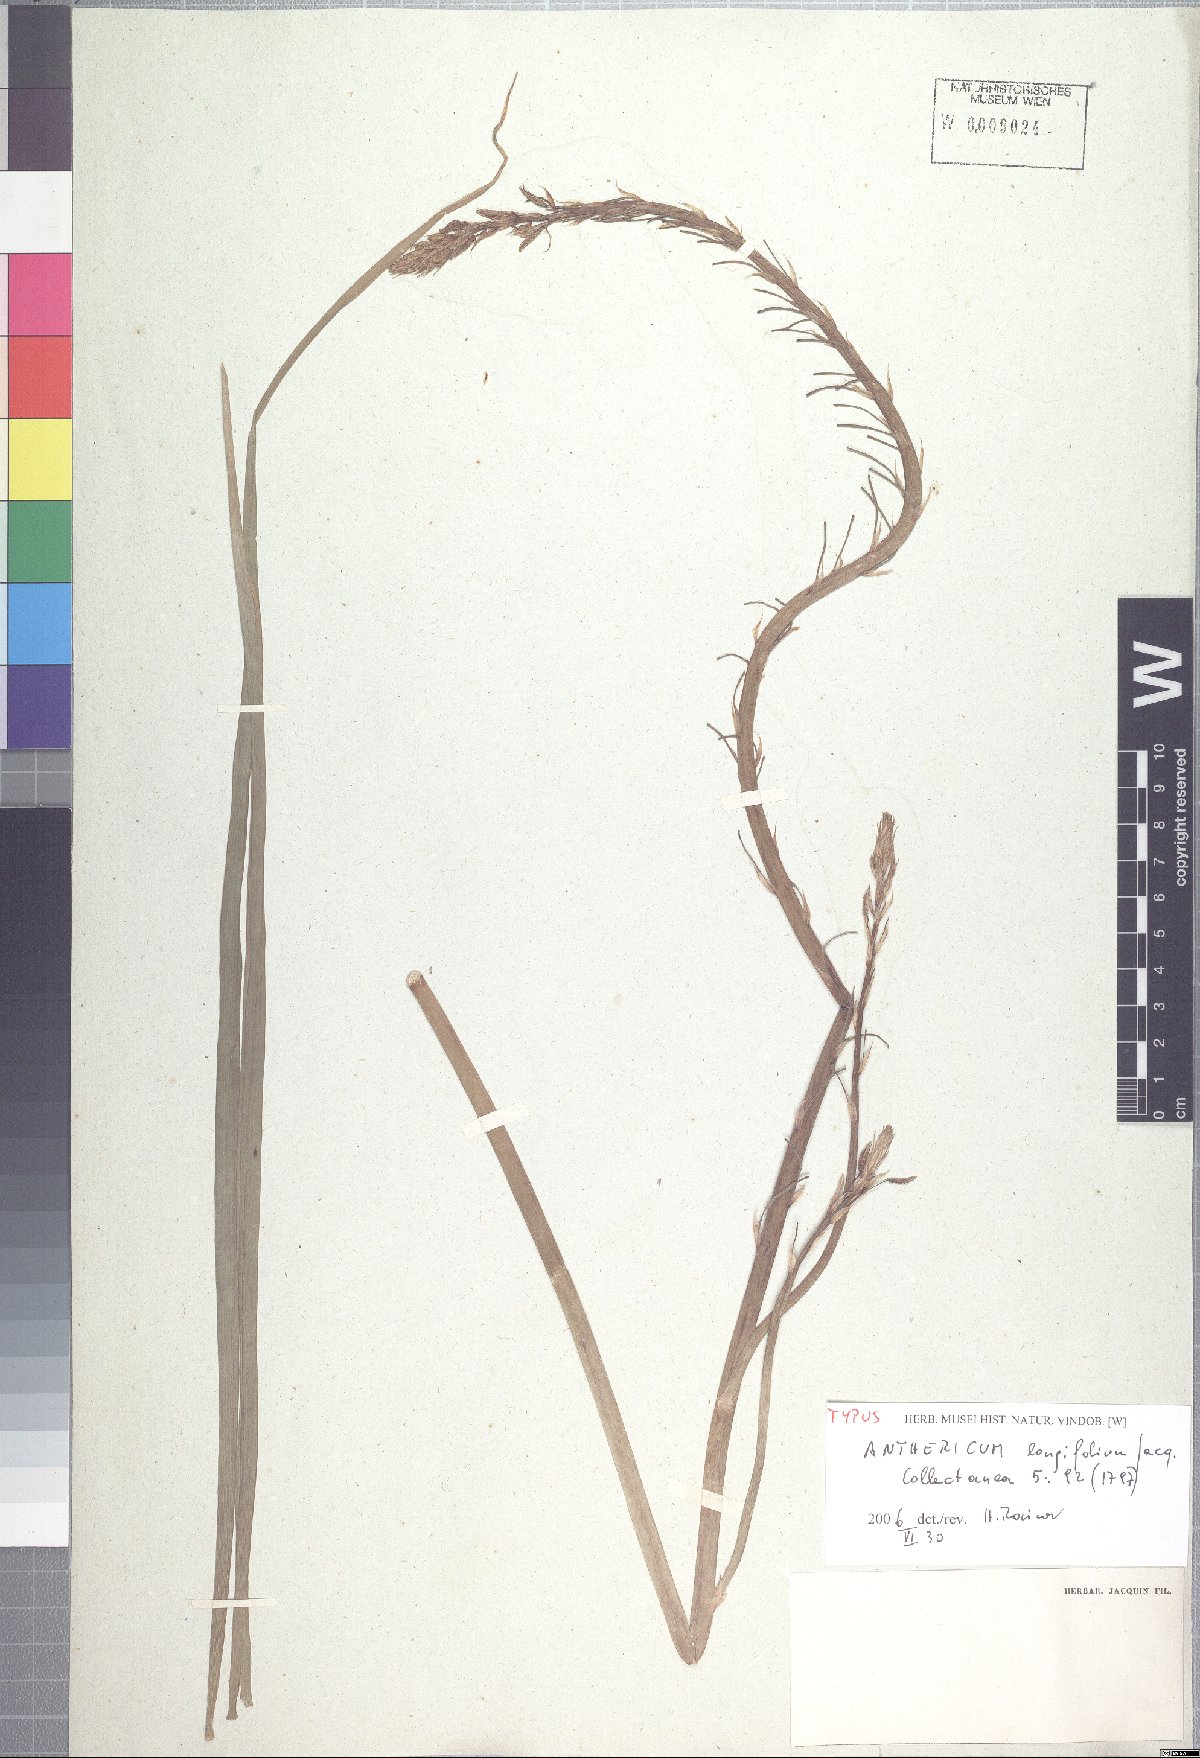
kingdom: Plantae
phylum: Tracheophyta
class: Liliopsida
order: Asparagales
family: Asphodelaceae
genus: Trachyandra
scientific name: Trachyandra ciliata
